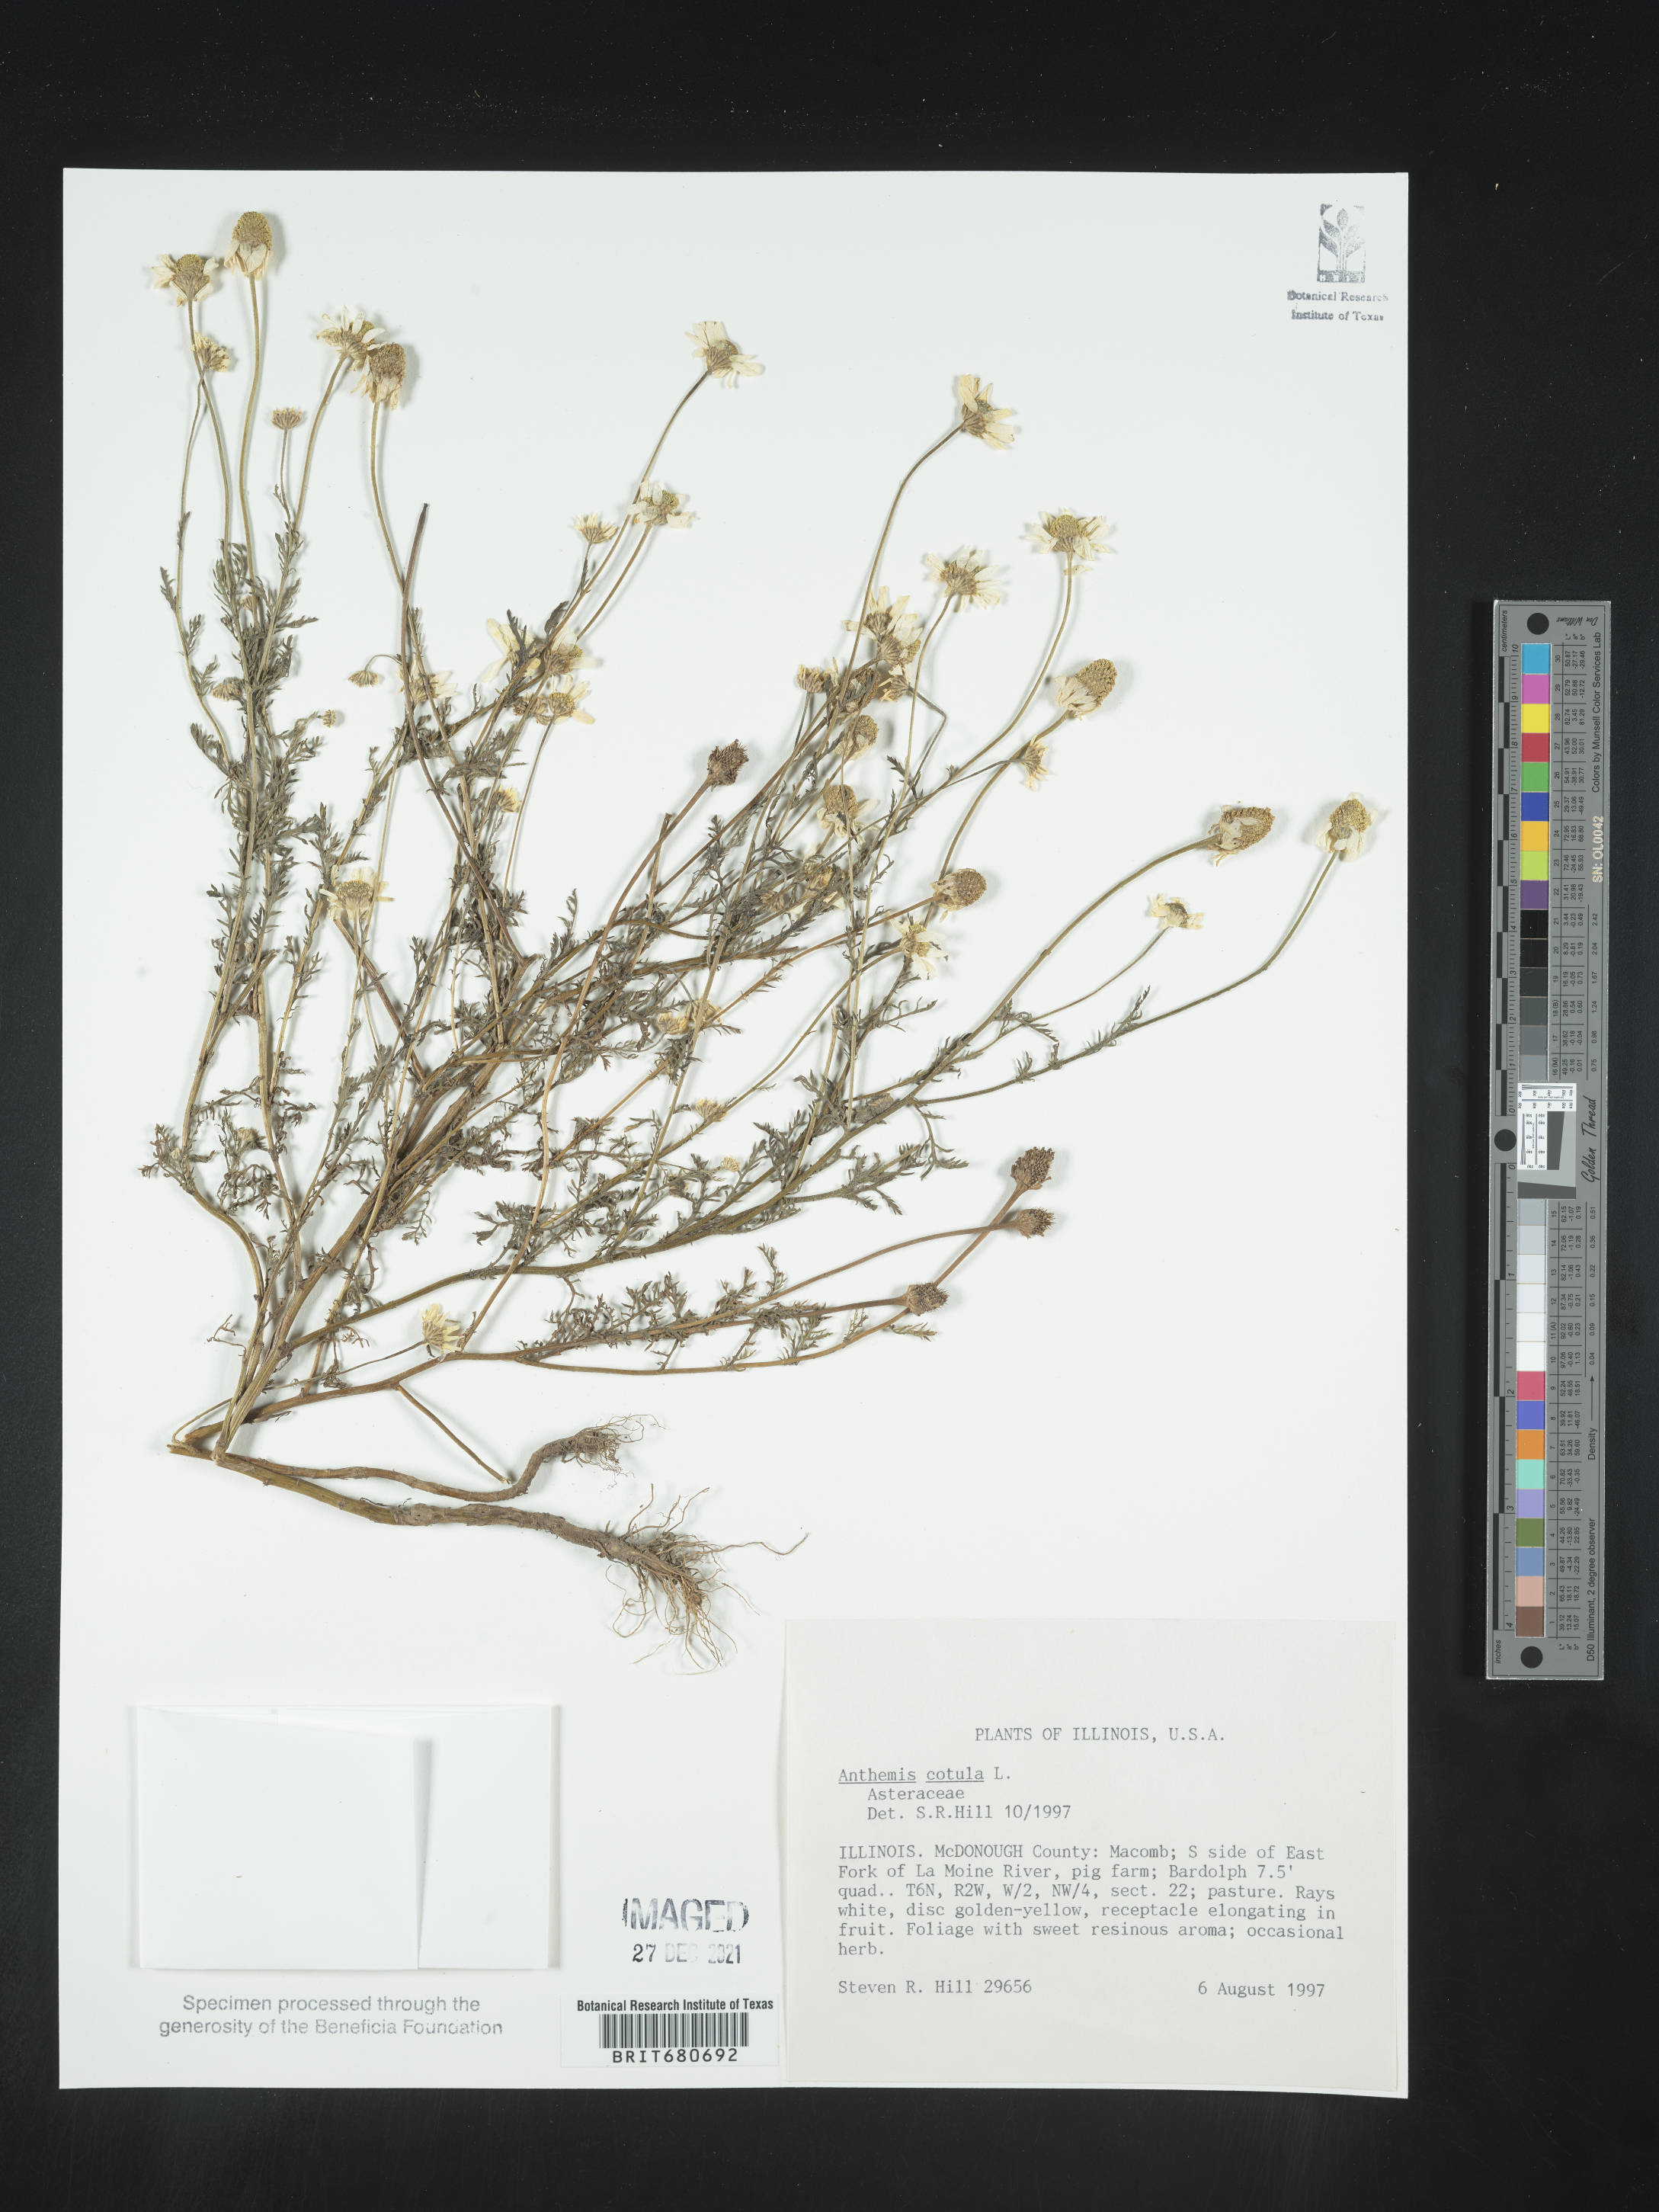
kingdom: Plantae
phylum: Tracheophyta
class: Magnoliopsida
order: Asterales
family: Asteraceae
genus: Anthemis
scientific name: Anthemis cotula
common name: Stinking chamomile
